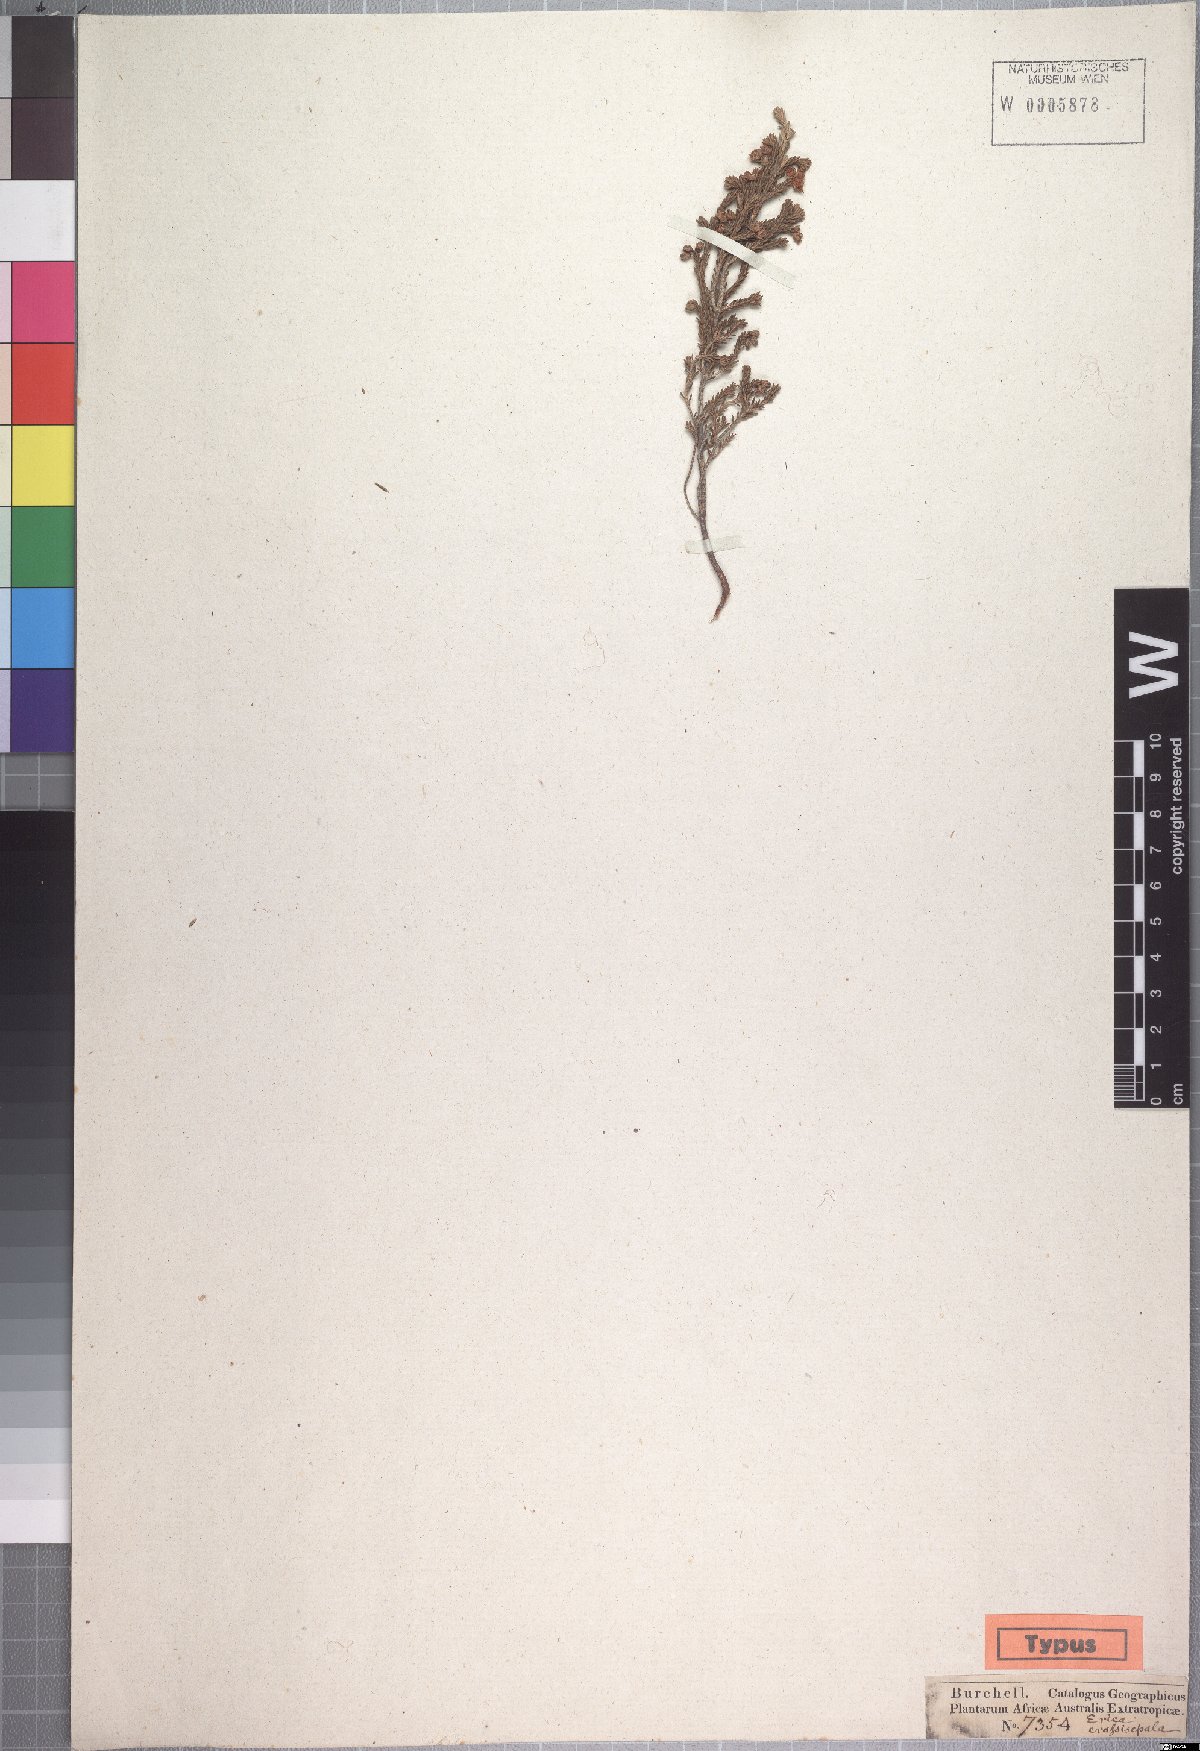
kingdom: Plantae
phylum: Tracheophyta
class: Magnoliopsida
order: Ericales
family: Ericaceae
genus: Erica
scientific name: Erica crassisepala
